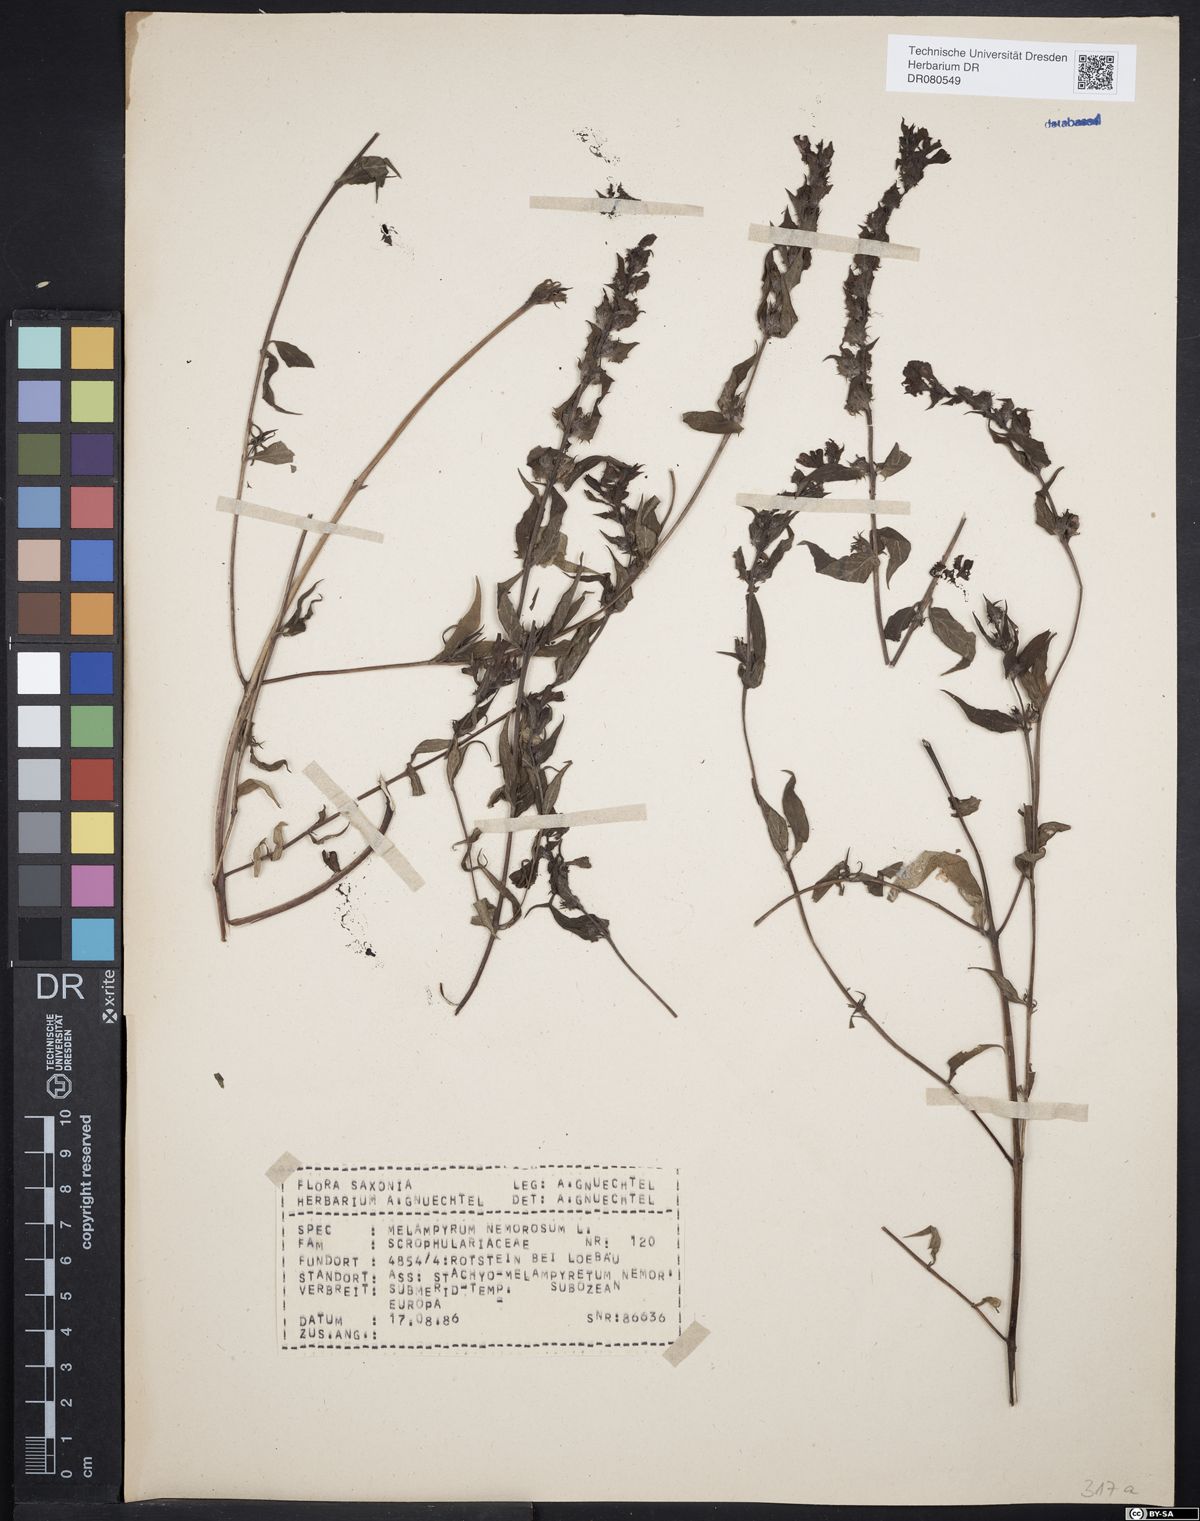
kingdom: Plantae
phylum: Tracheophyta
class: Magnoliopsida
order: Lamiales
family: Orobanchaceae
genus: Melampyrum
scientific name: Melampyrum nemorosum
